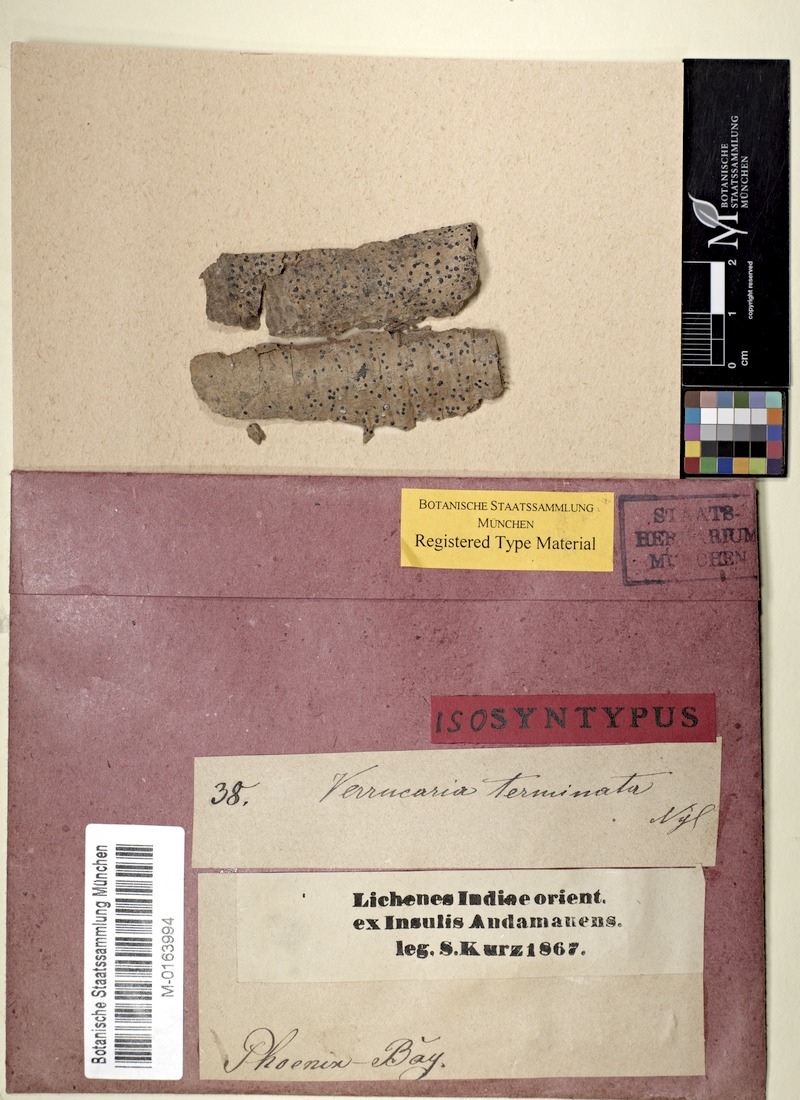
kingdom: Fungi
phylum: Ascomycota
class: Dothideomycetes
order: Monoblastiales
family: Monoblastiaceae
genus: Anisomeridium
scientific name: Anisomeridium terminatum
